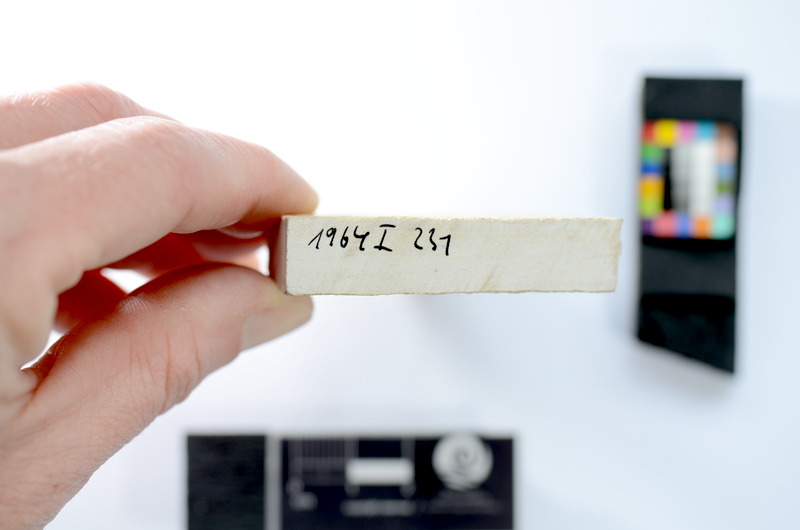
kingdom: Animalia
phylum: Chordata
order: Salmoniformes
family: Orthogonikleithridae
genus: Leptolepides
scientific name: Leptolepides
